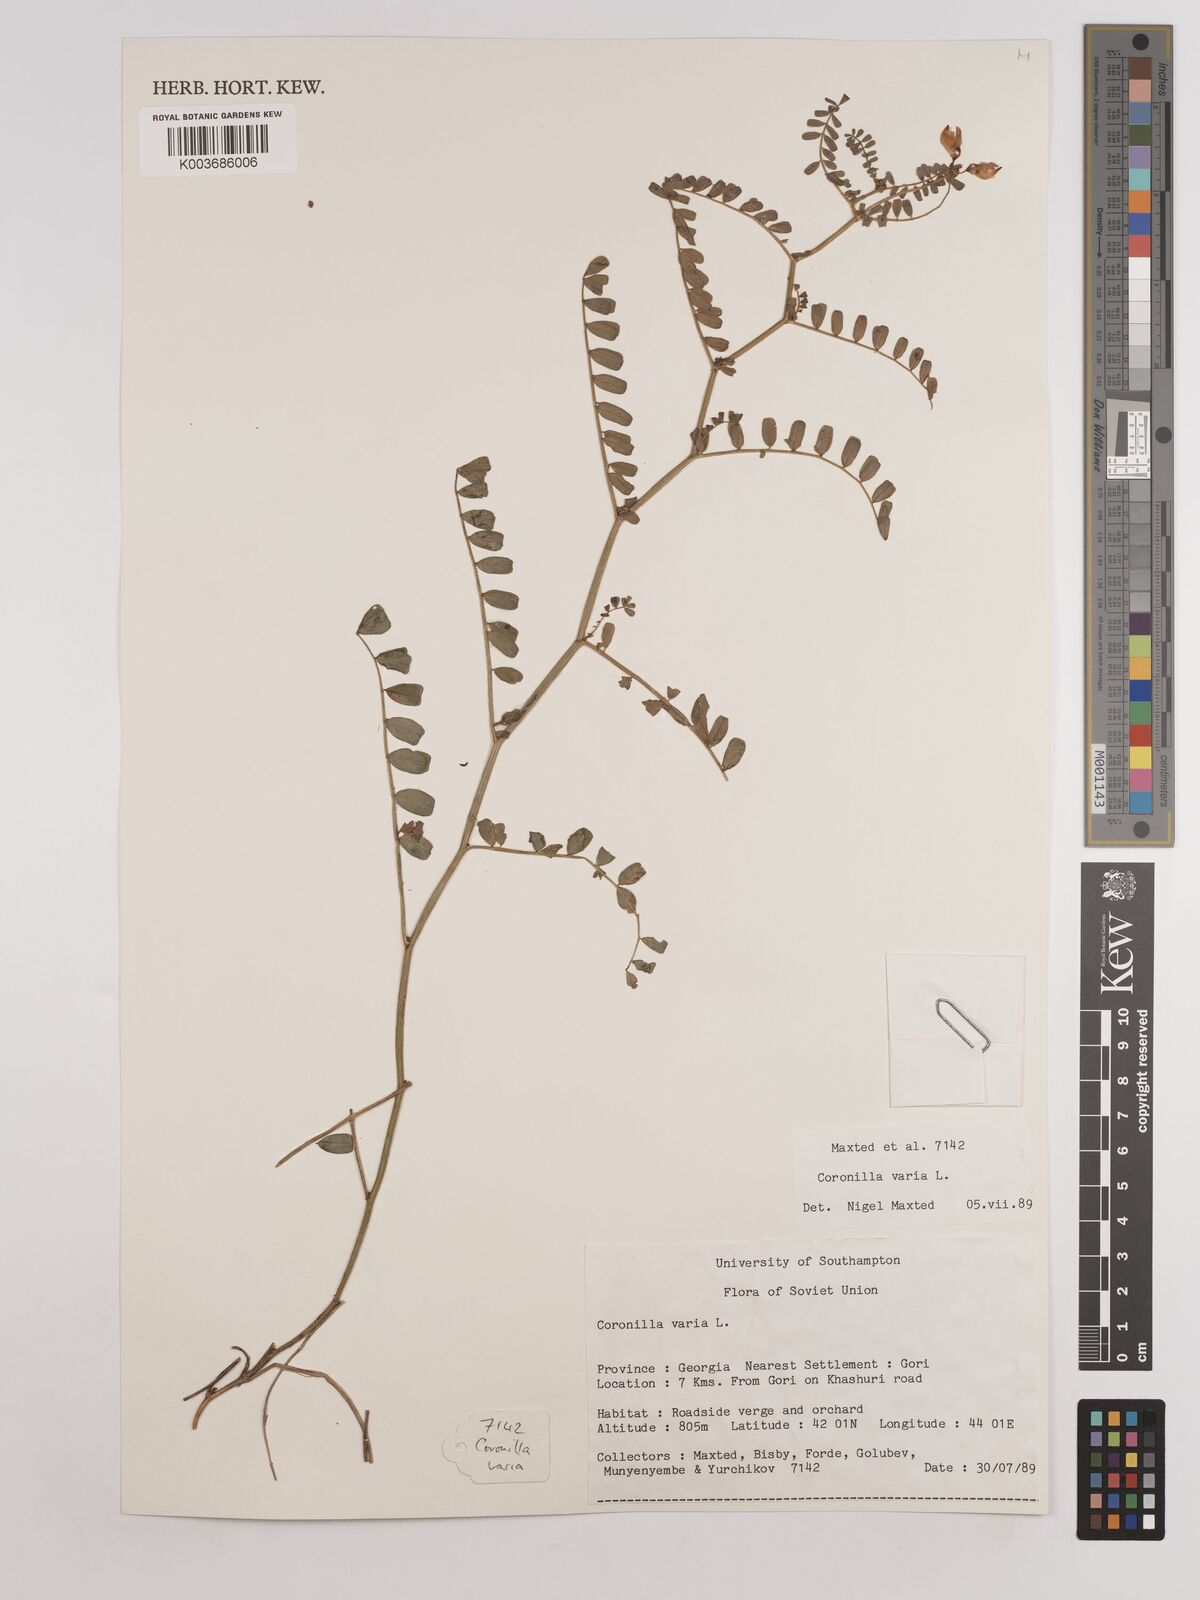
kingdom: Plantae
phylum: Tracheophyta
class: Magnoliopsida
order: Fabales
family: Fabaceae
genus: Coronilla
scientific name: Coronilla varia
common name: Crownvetch
